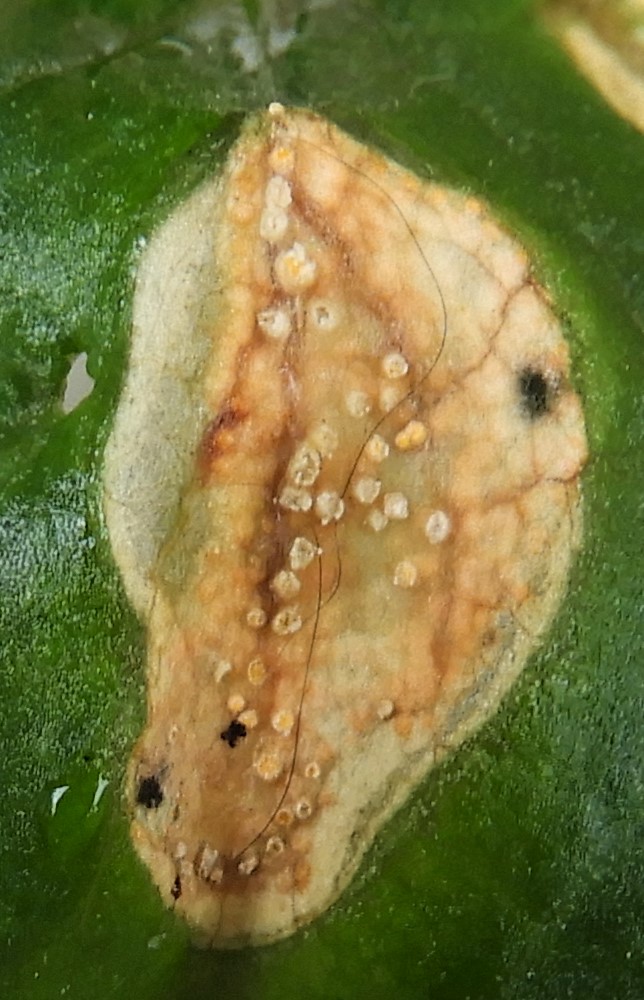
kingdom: Fungi
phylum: Basidiomycota
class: Pucciniomycetes
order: Pucciniales
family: Pucciniaceae
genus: Puccinia
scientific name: Puccinia violae
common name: viol-tvecellerust
